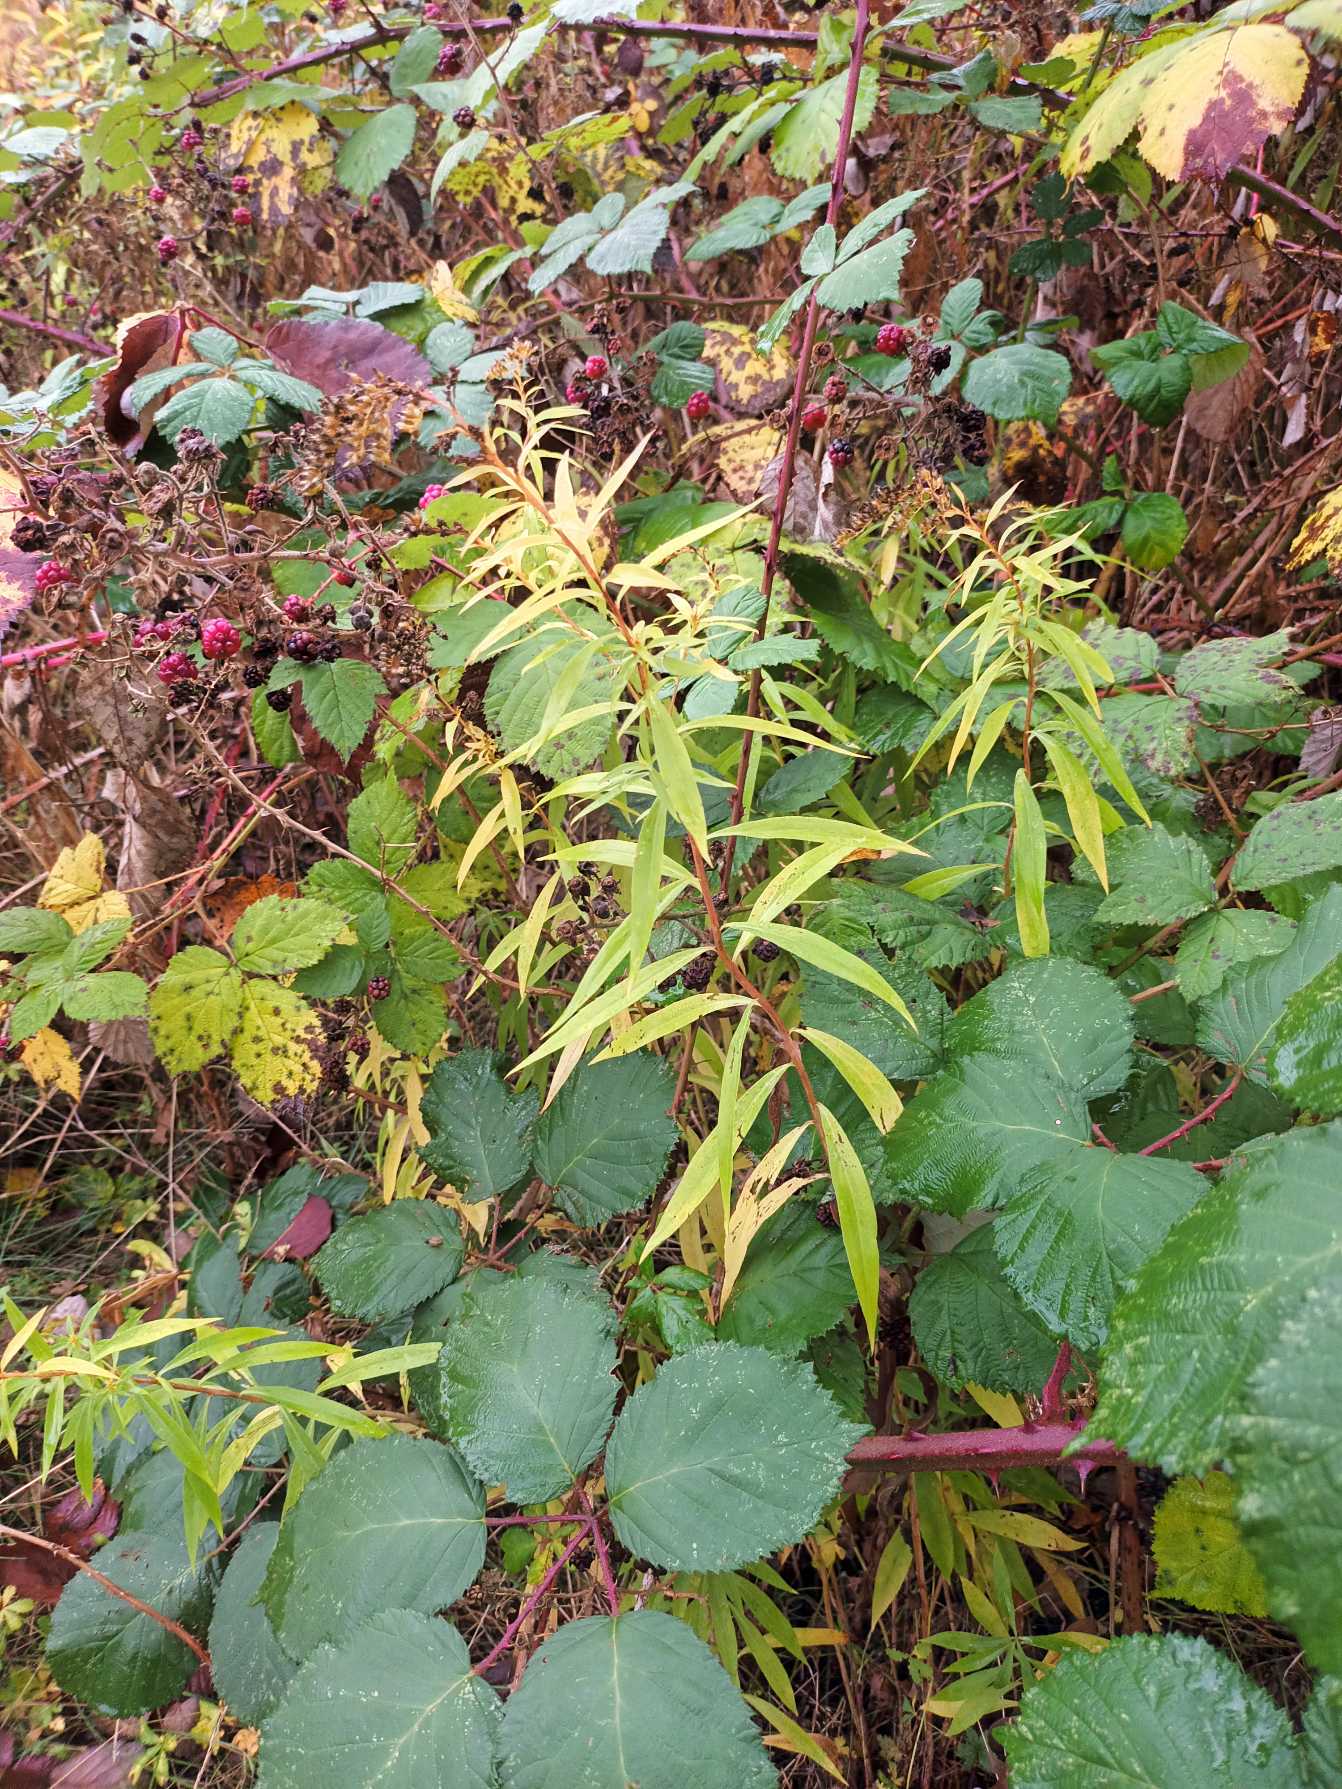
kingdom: Plantae
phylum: Tracheophyta
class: Magnoliopsida
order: Asterales
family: Asteraceae
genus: Solidago
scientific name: Solidago gigantea
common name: Sildig gyldenris
